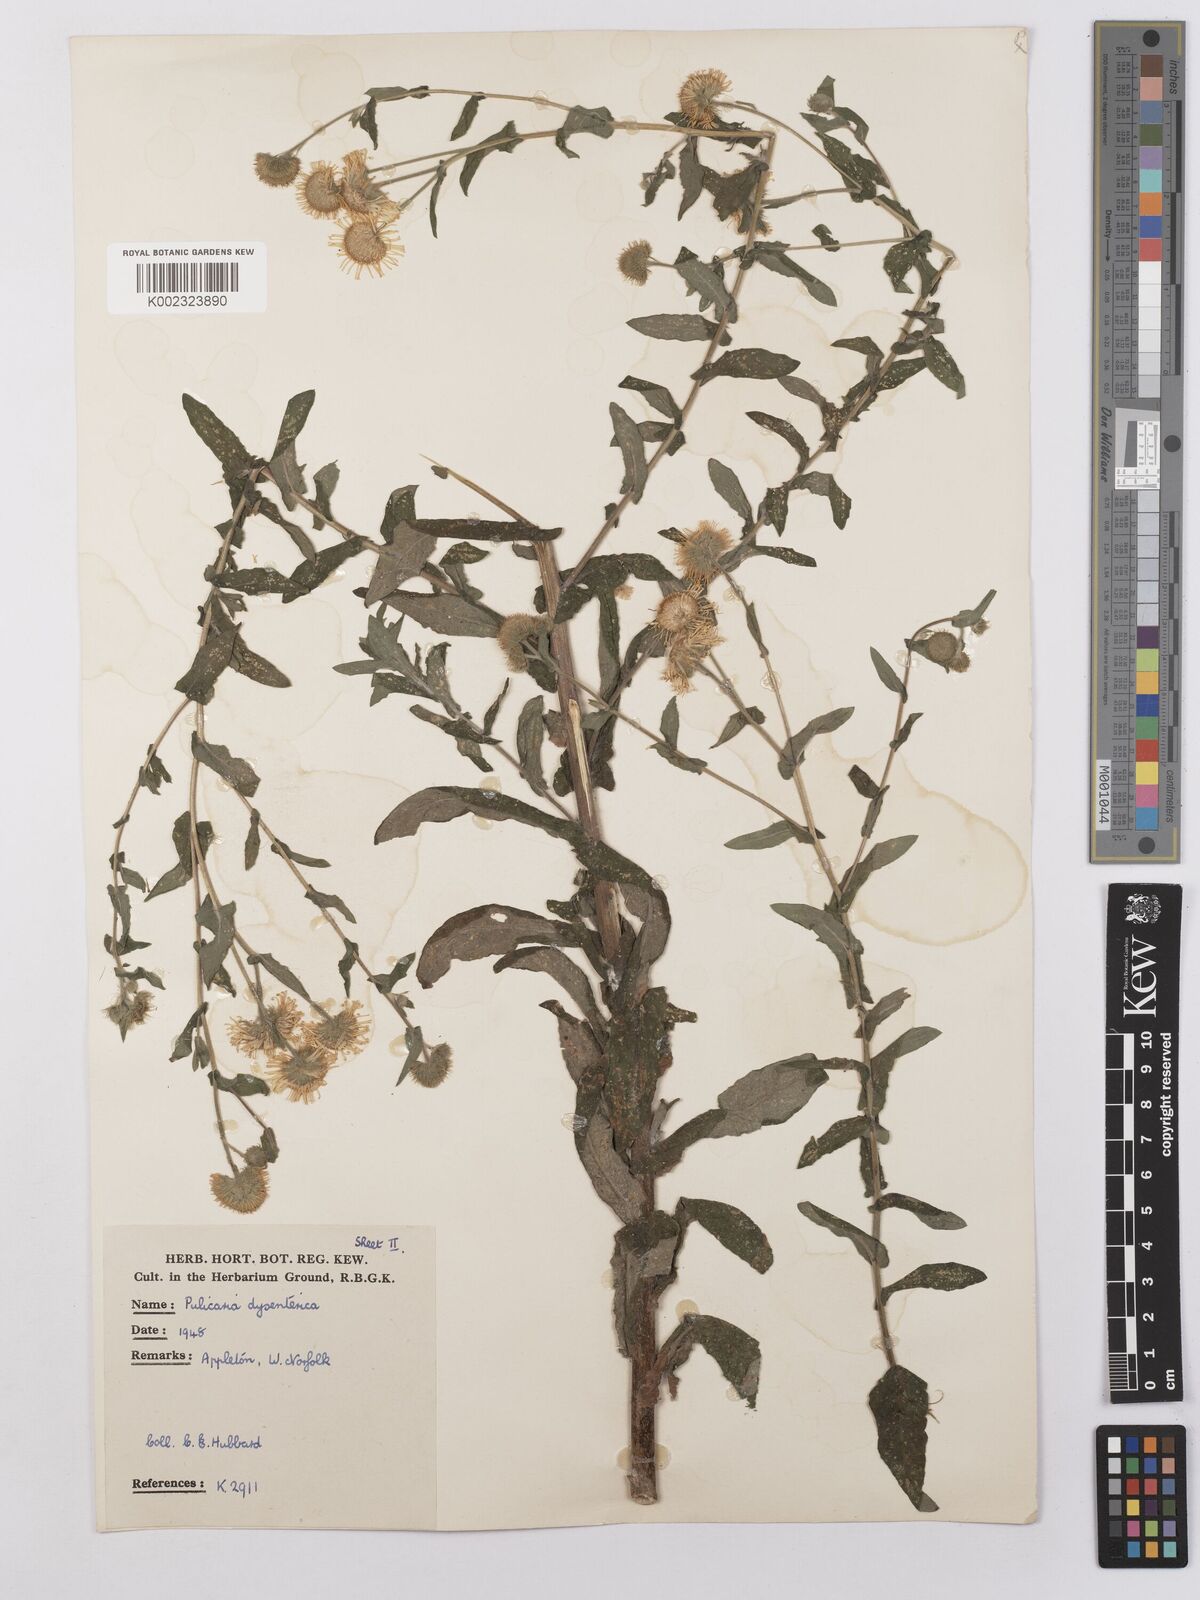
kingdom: Plantae
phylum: Tracheophyta
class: Magnoliopsida
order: Asterales
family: Asteraceae
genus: Pulicaria
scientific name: Pulicaria dysenterica
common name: Common fleabane
